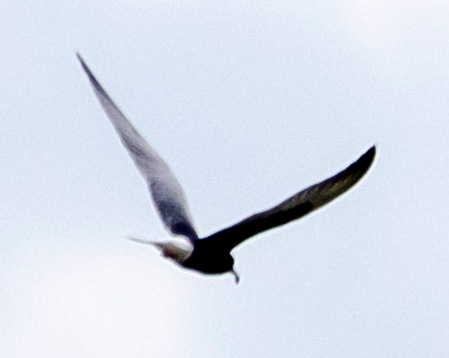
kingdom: Animalia
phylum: Chordata
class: Aves
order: Charadriiformes
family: Laridae
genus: Chlidonias
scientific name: Chlidonias leucopterus
